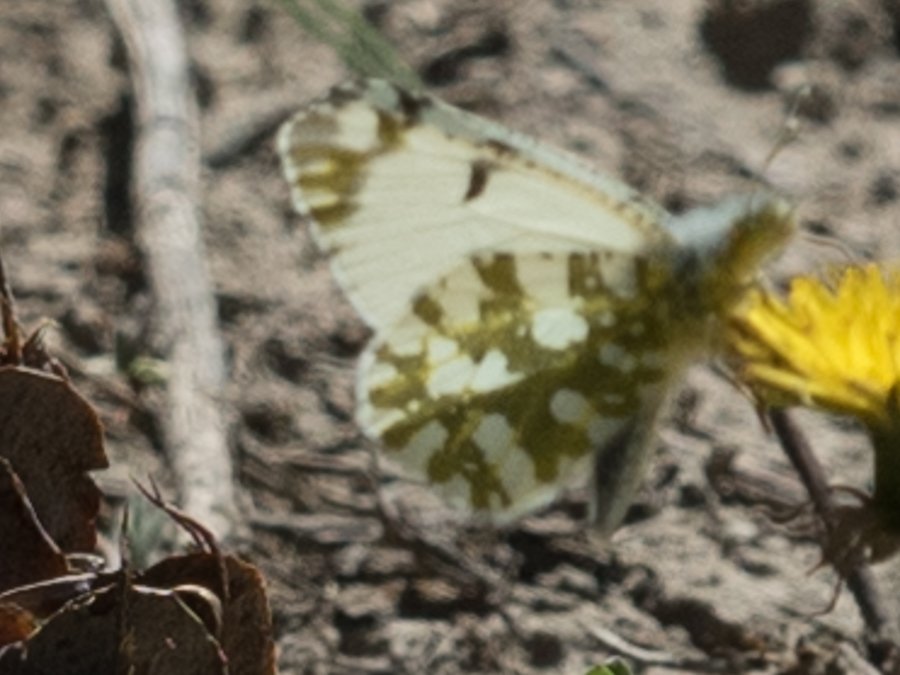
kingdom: Animalia
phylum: Arthropoda
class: Insecta
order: Lepidoptera
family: Pieridae
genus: Euchloe
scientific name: Euchloe ausonides
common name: Large Marble
